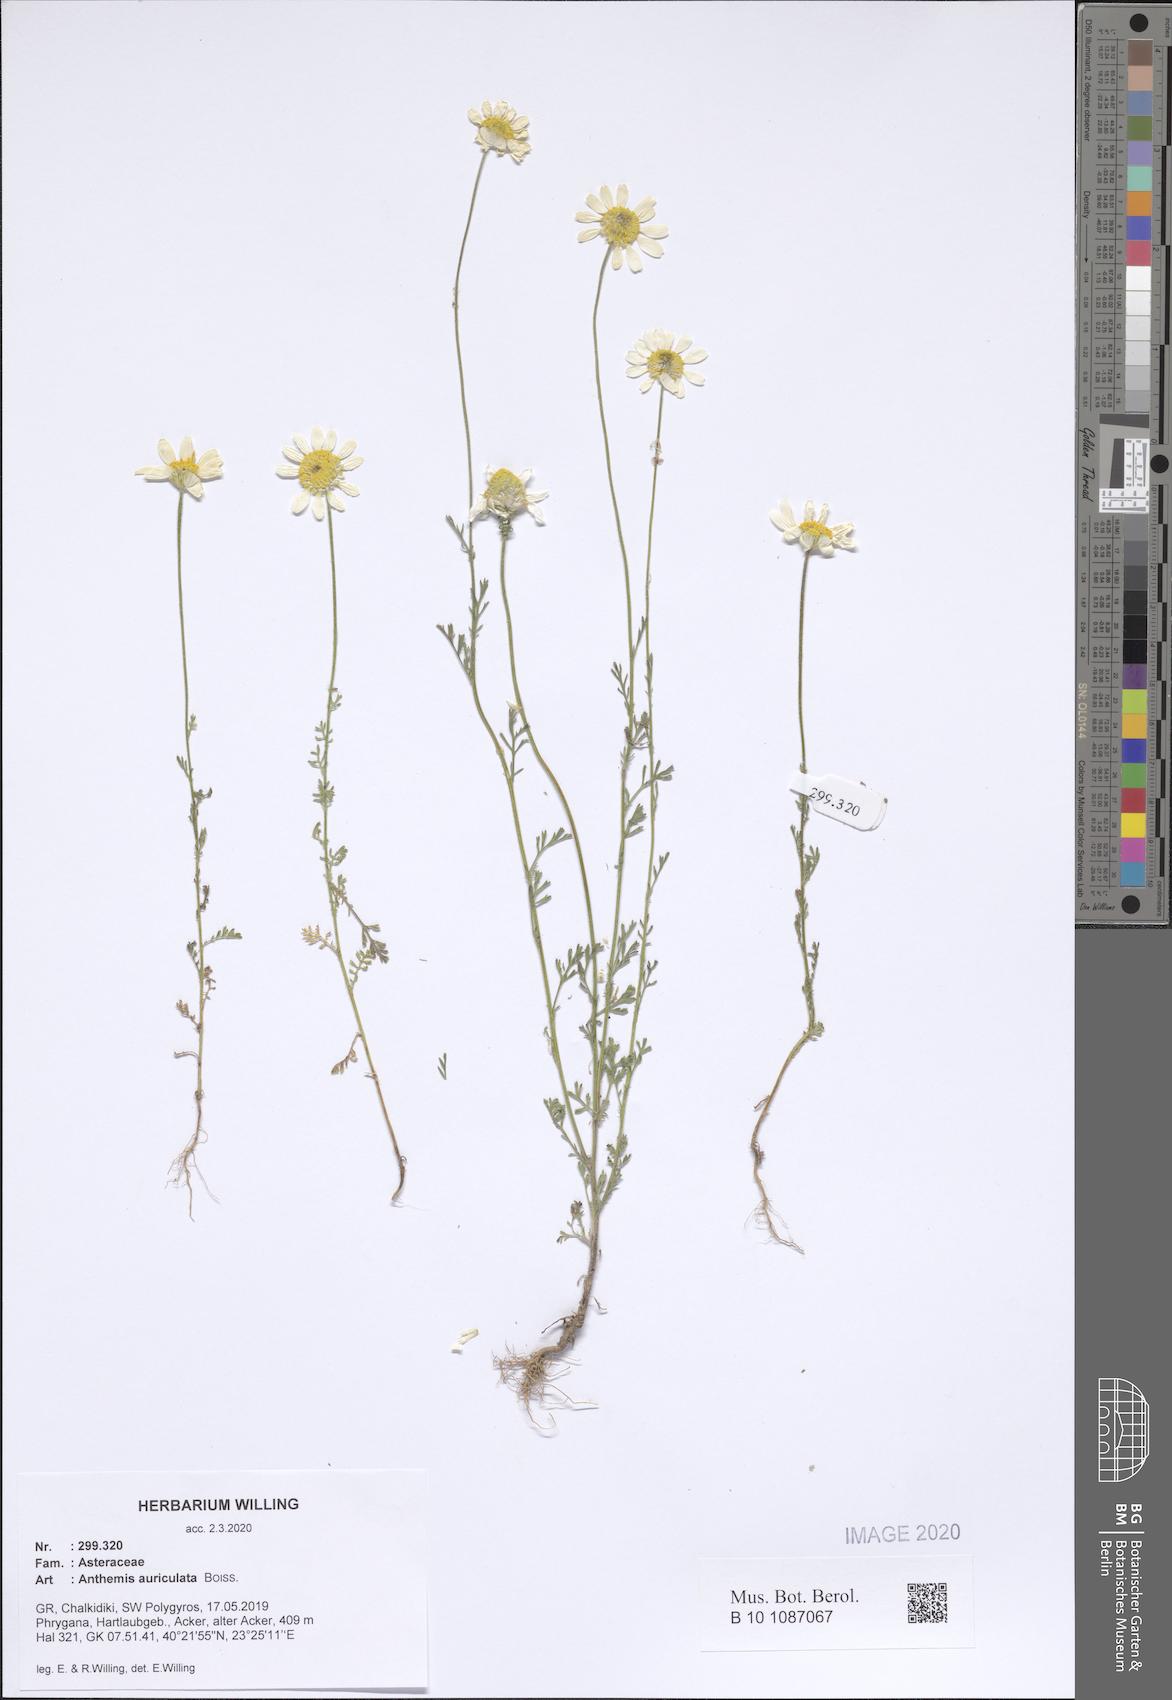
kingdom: Plantae
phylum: Tracheophyta
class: Magnoliopsida
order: Asterales
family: Asteraceae
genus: Anthemis
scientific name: Anthemis auriculata
